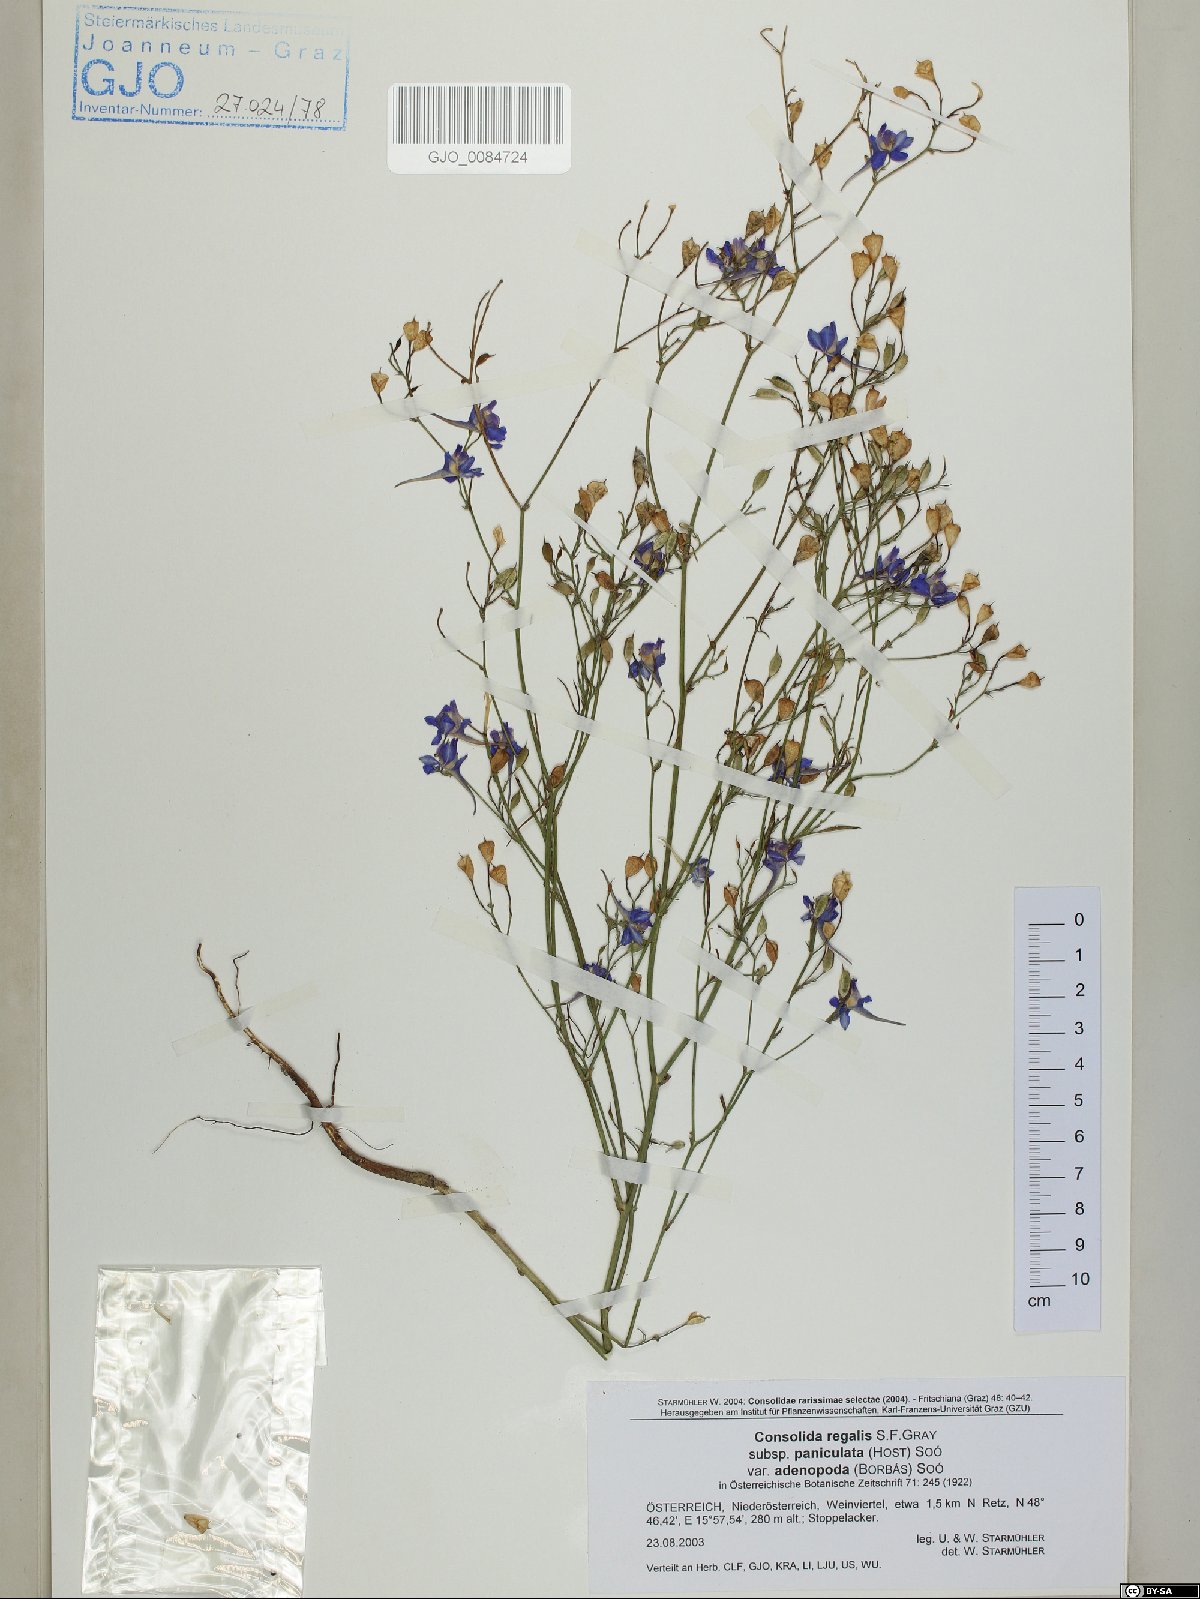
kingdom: Plantae
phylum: Tracheophyta
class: Magnoliopsida
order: Ranunculales
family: Ranunculaceae
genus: Delphinium
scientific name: Delphinium consolida
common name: Branching larkspur
